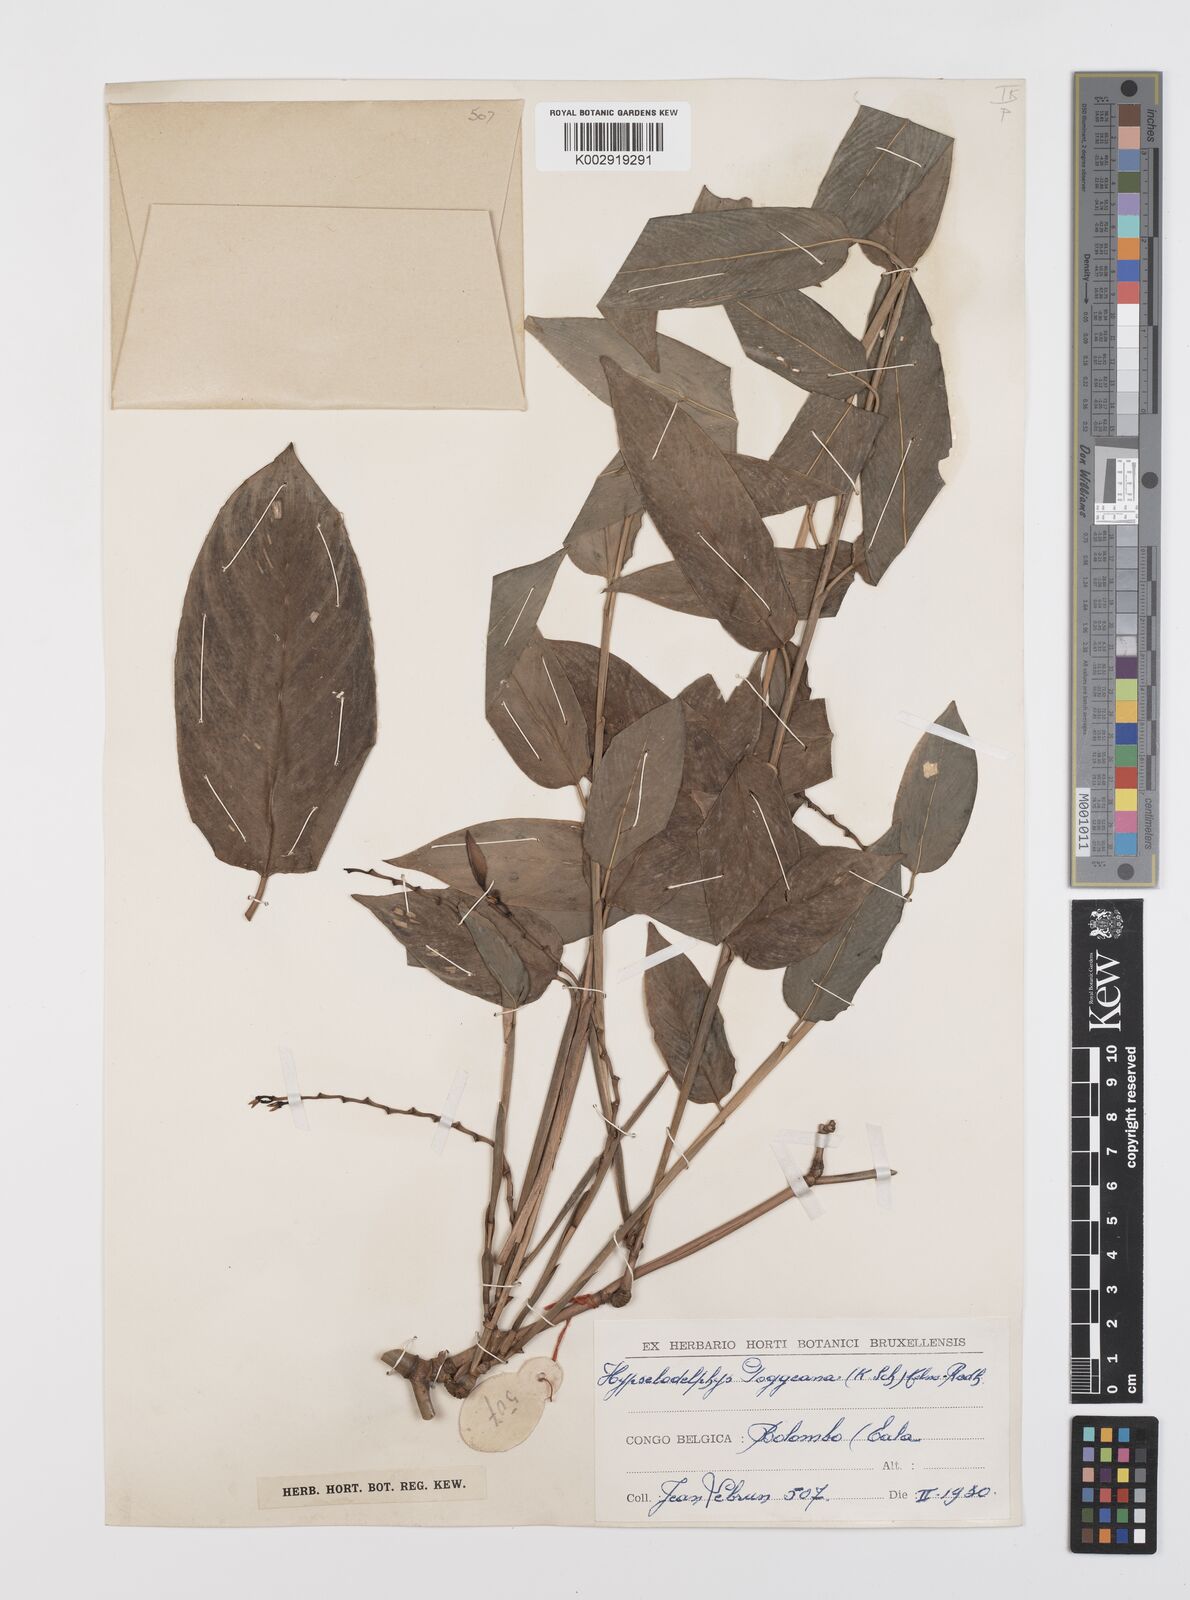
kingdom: Plantae
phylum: Tracheophyta
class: Liliopsida
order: Zingiberales
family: Marantaceae
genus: Hypselodelphys
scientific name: Hypselodelphys poggeana
